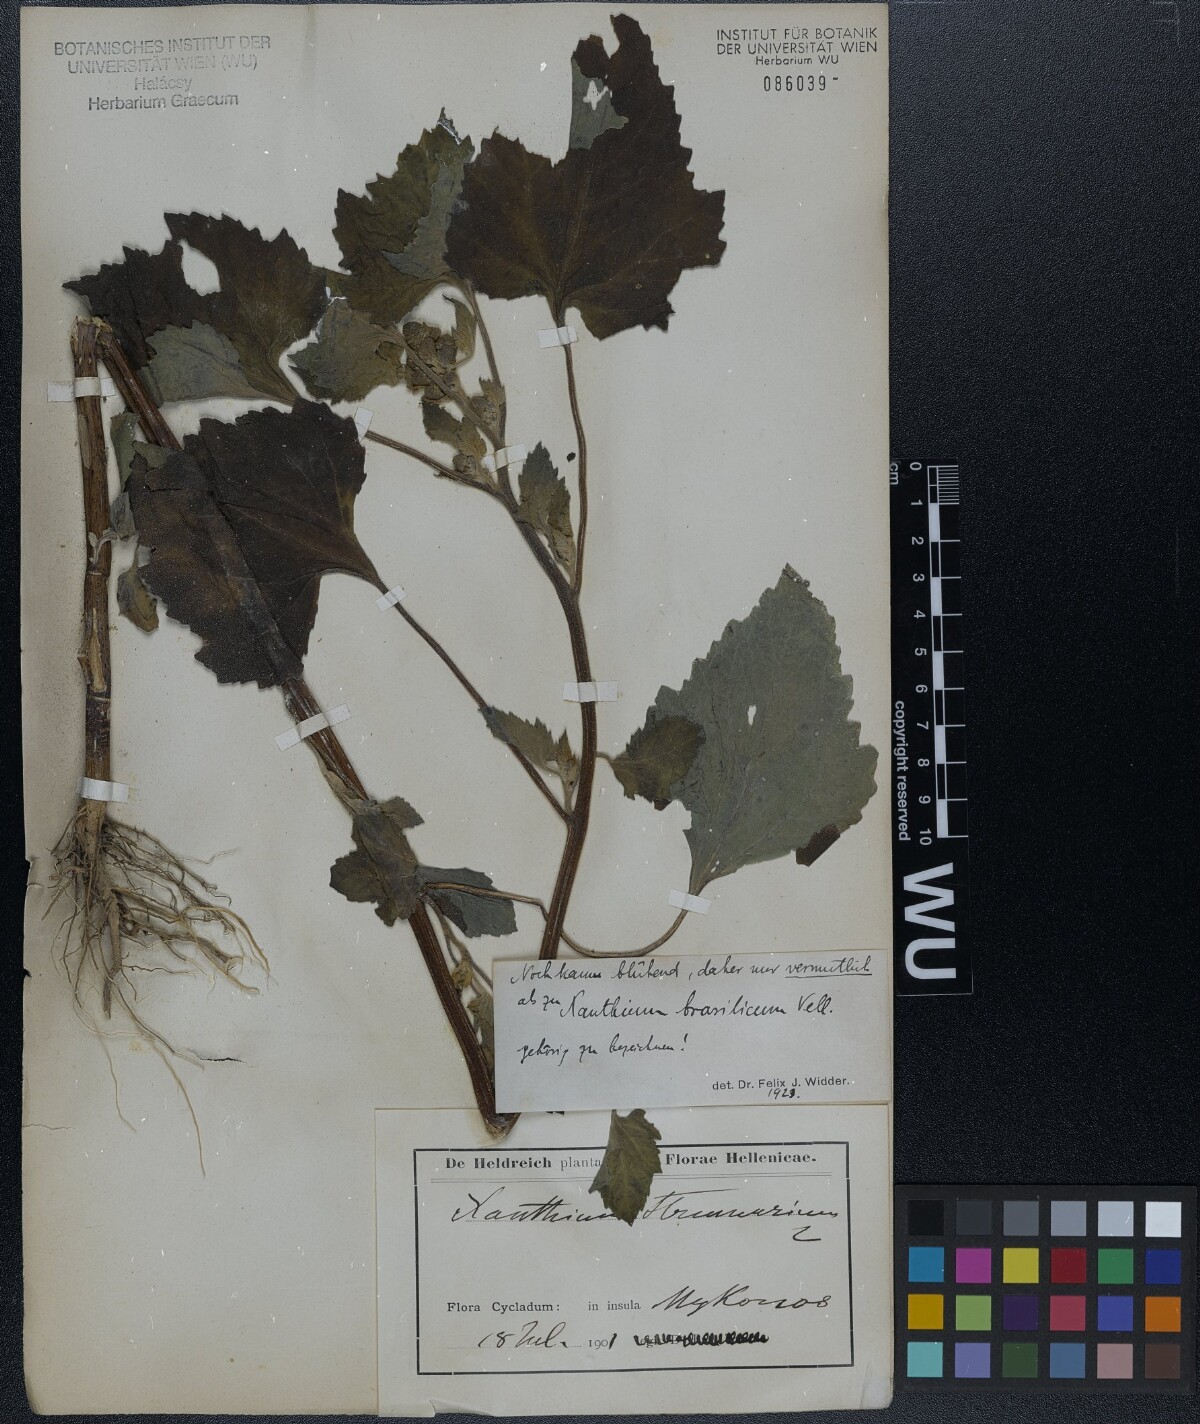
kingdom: Plantae
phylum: Tracheophyta
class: Magnoliopsida
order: Asterales
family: Asteraceae
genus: Xanthium
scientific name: Xanthium strumarium
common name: Rough cocklebur
